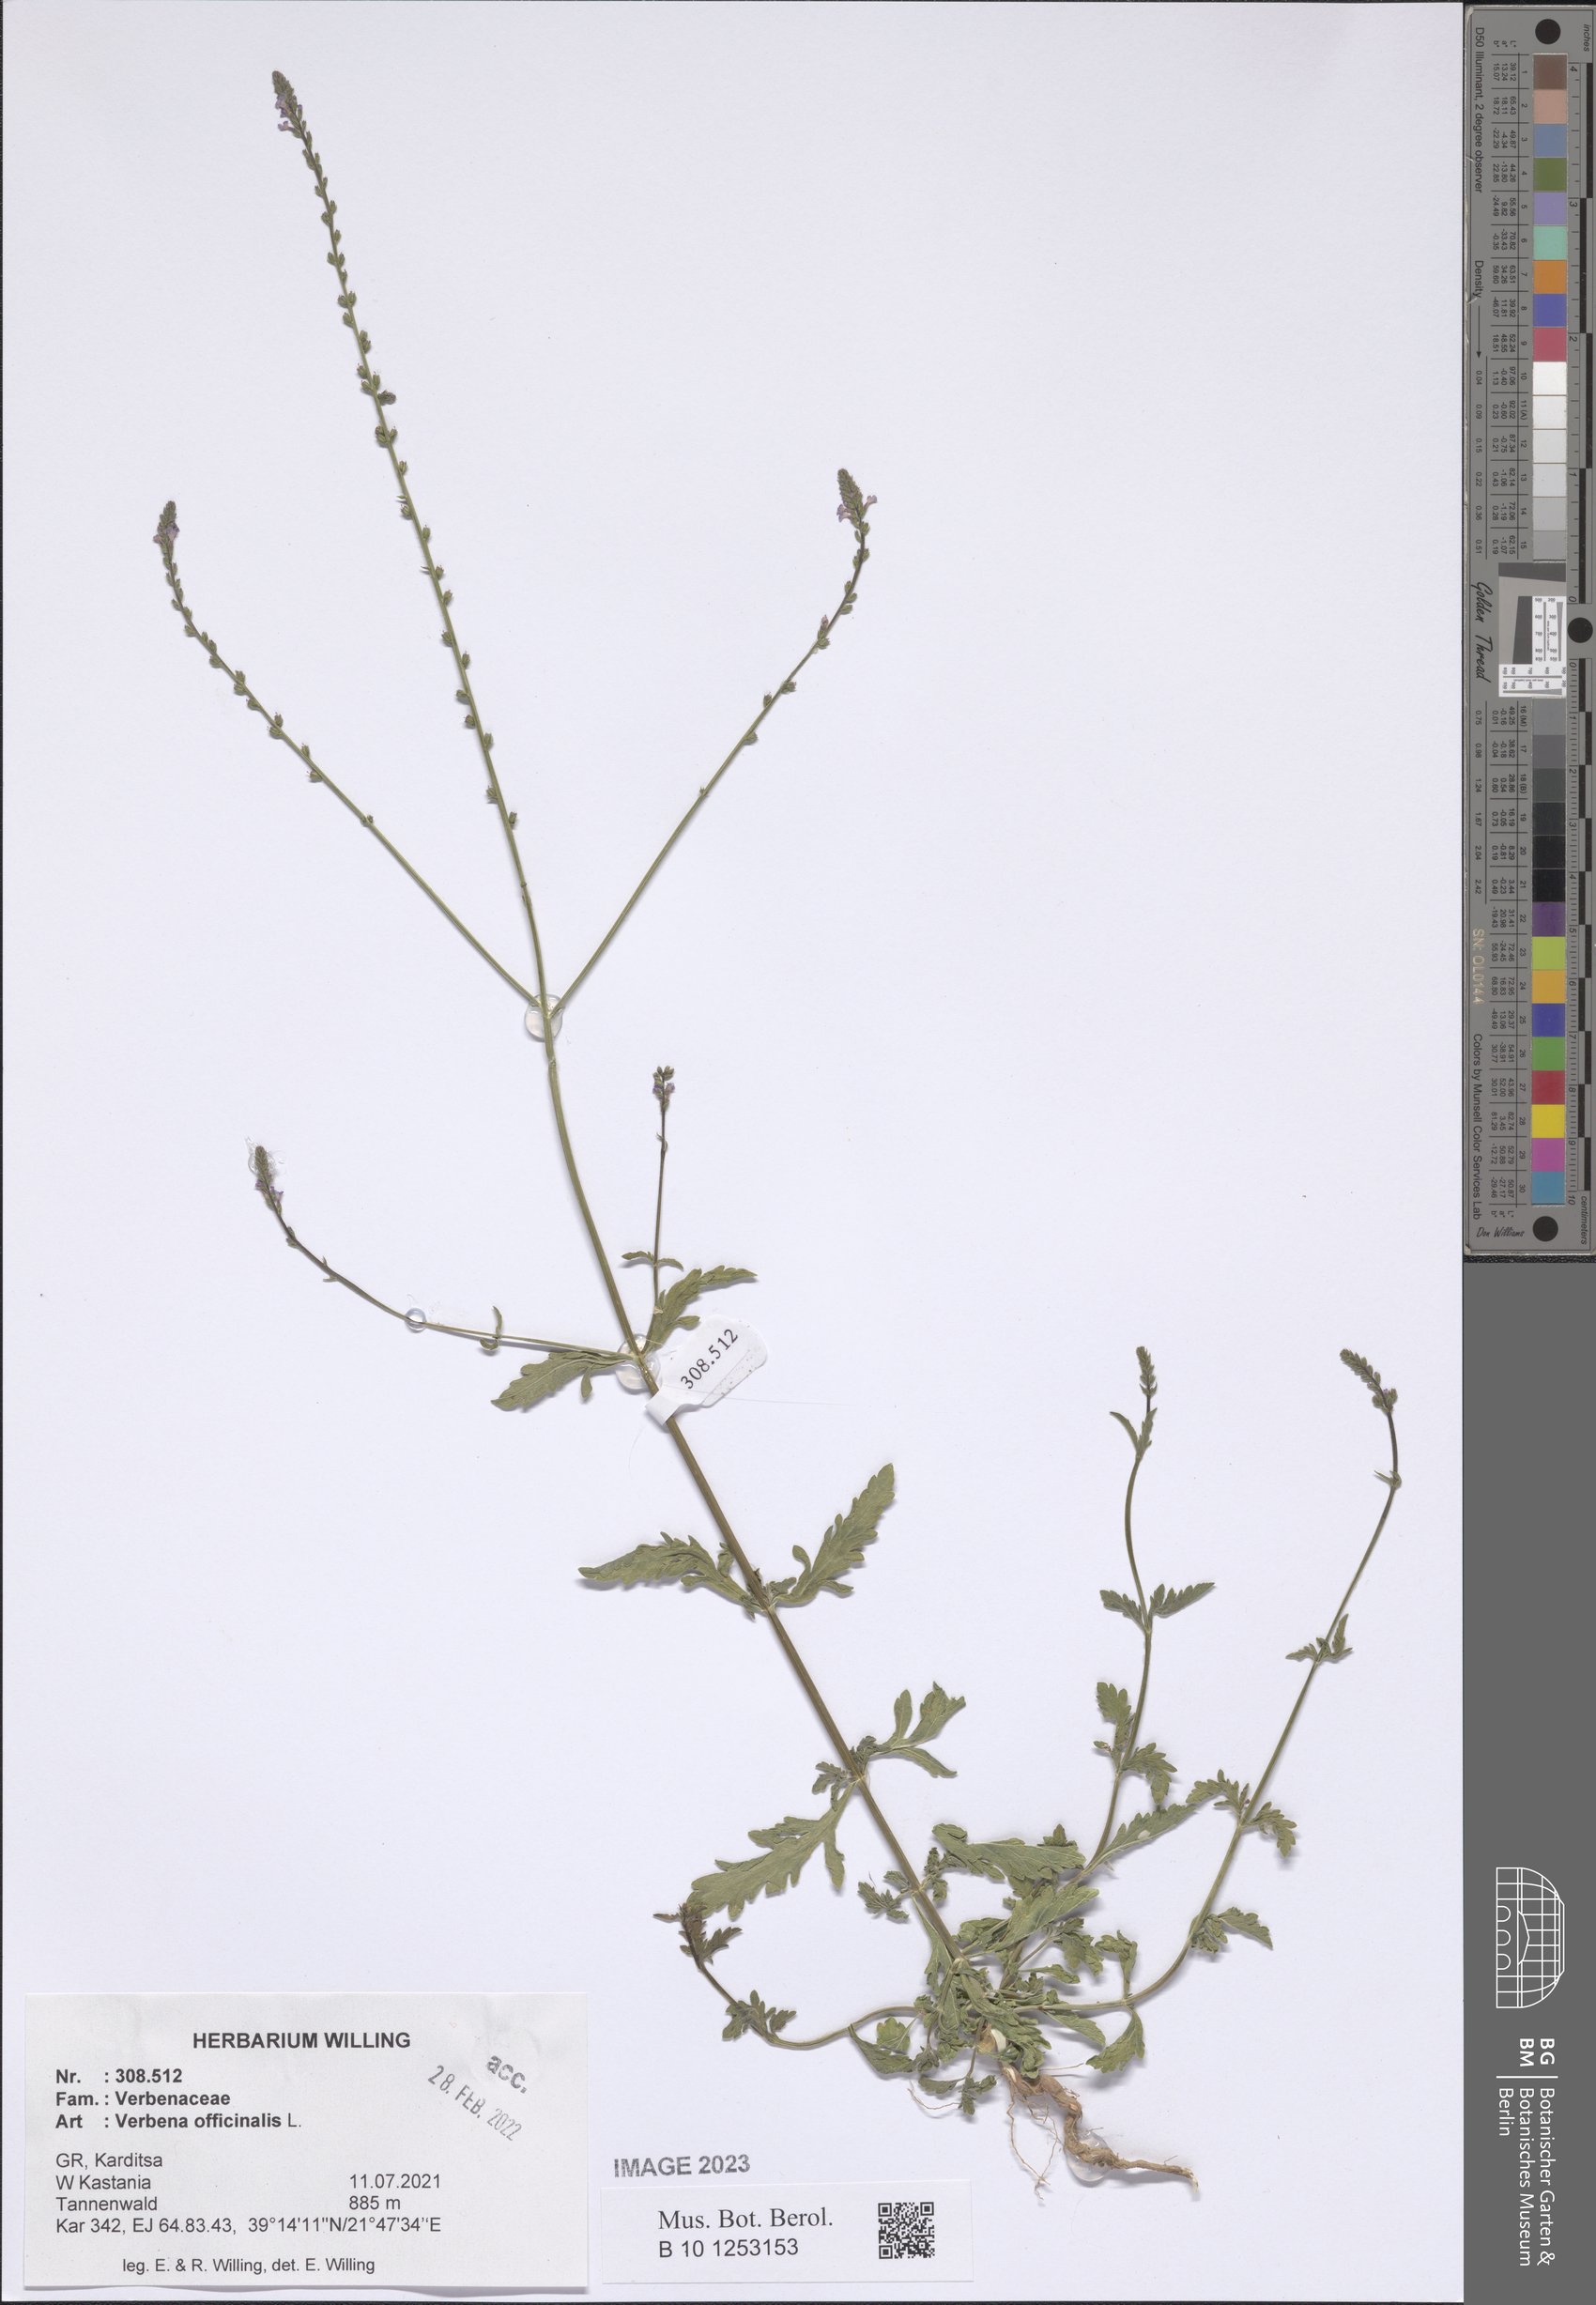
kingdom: Plantae
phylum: Tracheophyta
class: Magnoliopsida
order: Lamiales
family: Verbenaceae
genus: Verbena
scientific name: Verbena officinalis
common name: Vervain
